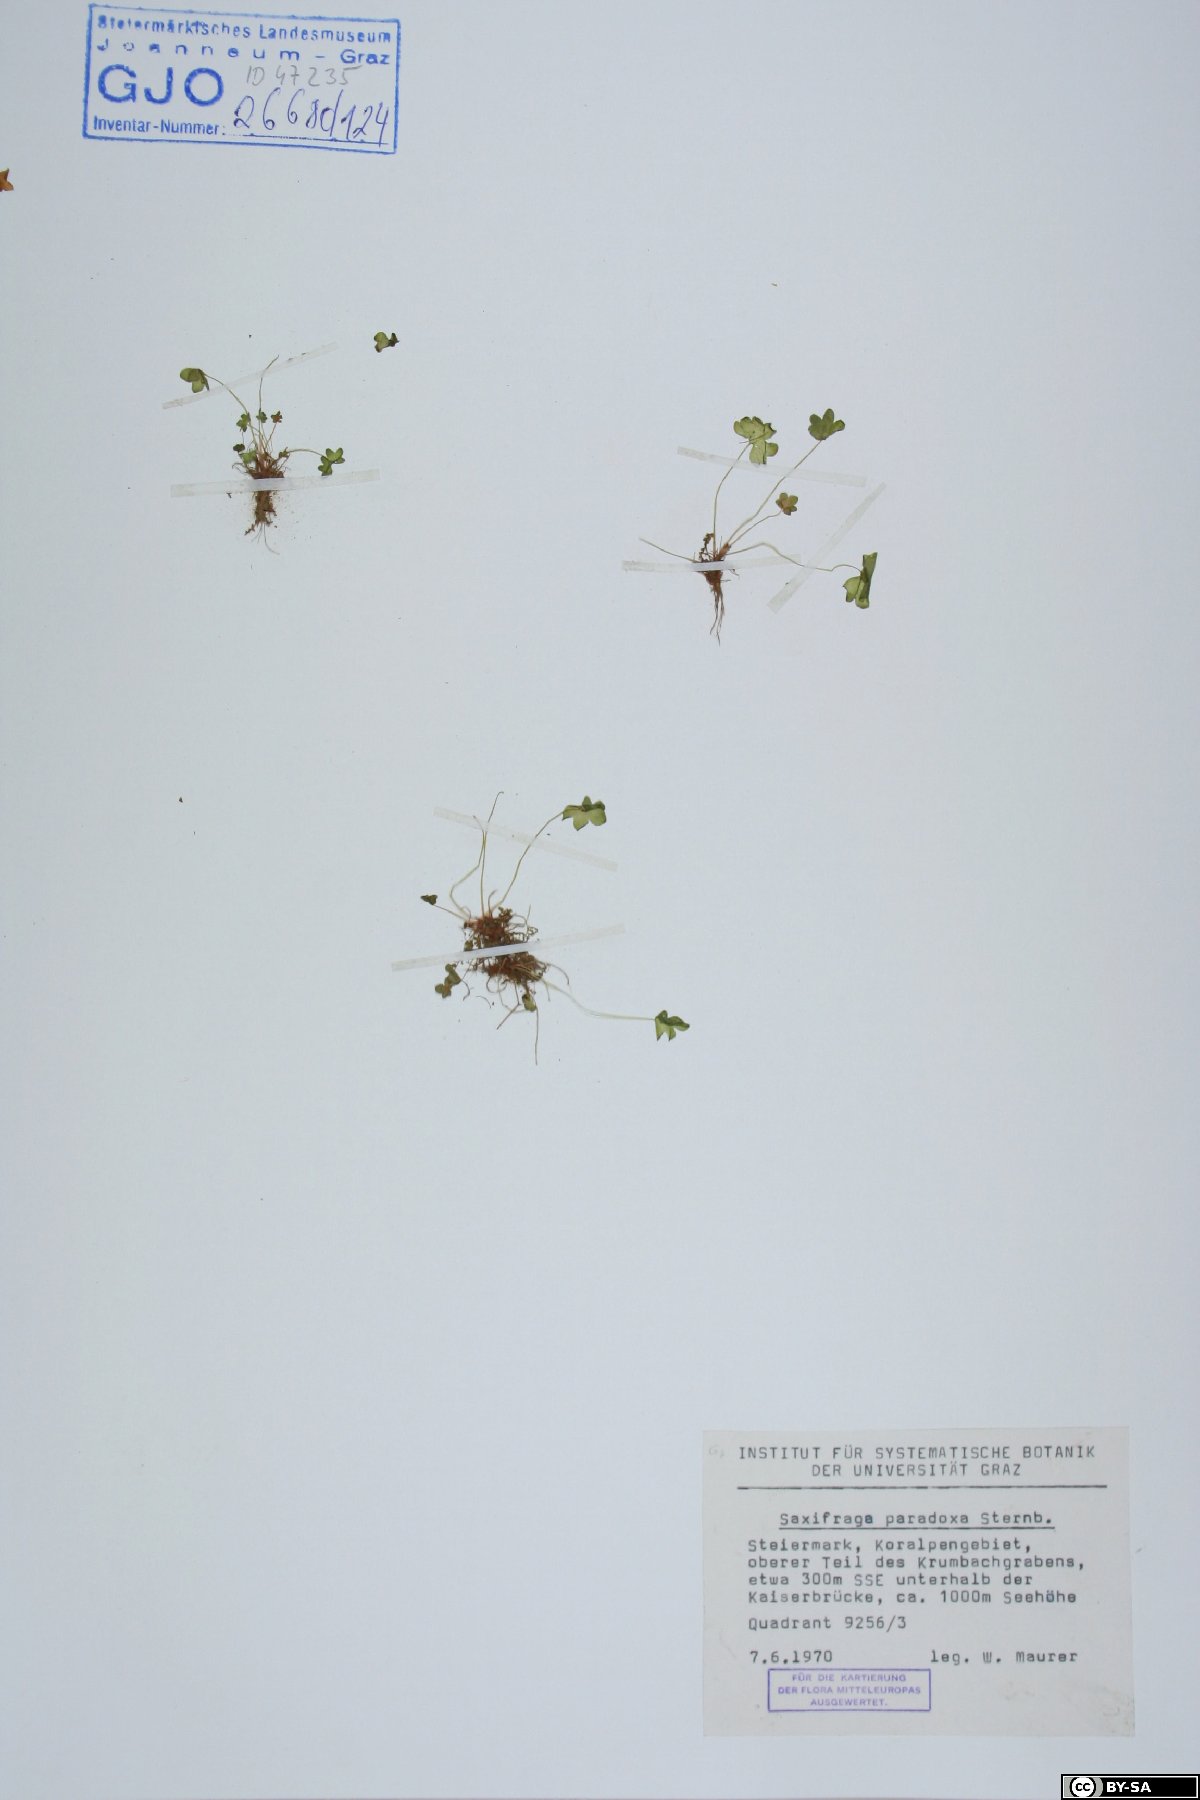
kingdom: Plantae
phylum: Tracheophyta
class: Magnoliopsida
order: Saxifragales
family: Saxifragaceae
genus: Saxifraga
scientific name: Saxifraga paradoxa
